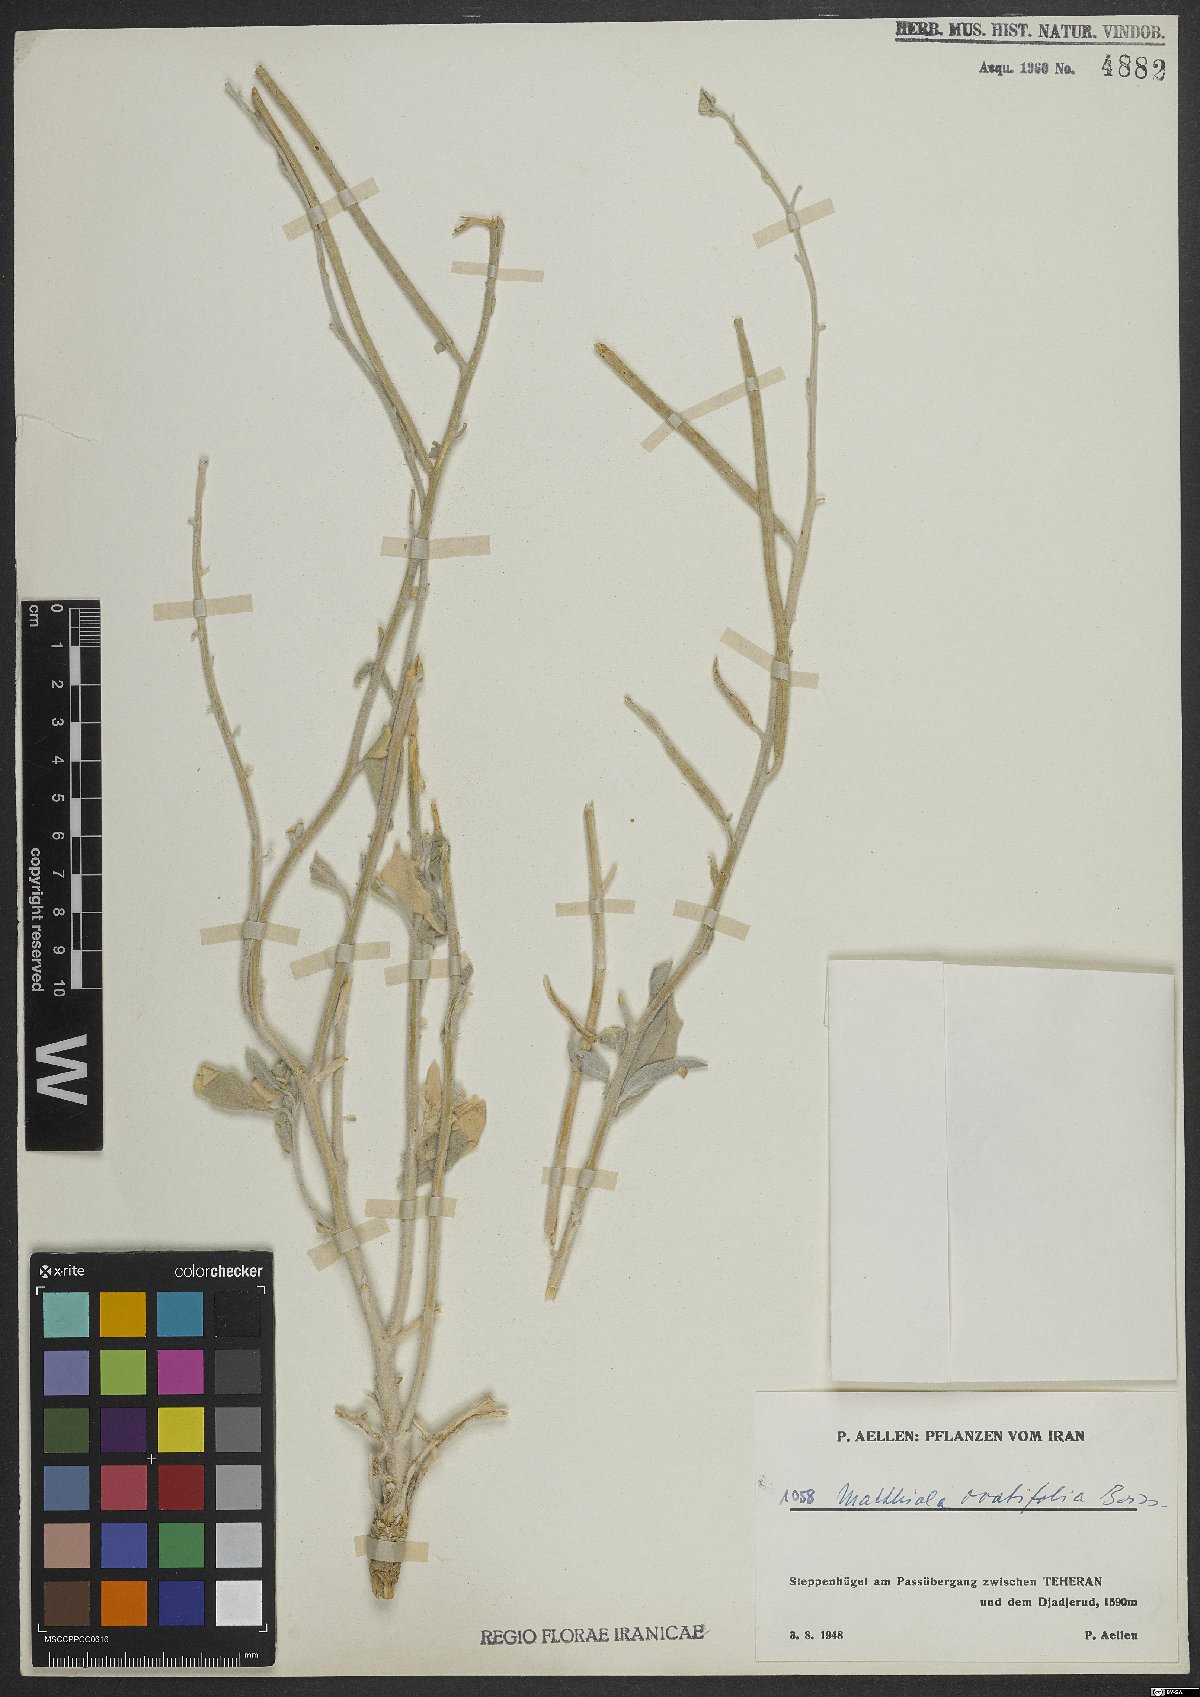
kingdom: Plantae
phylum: Tracheophyta
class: Magnoliopsida
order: Brassicales
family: Brassicaceae
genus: Matthiola
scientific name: Matthiola ovatifolia
